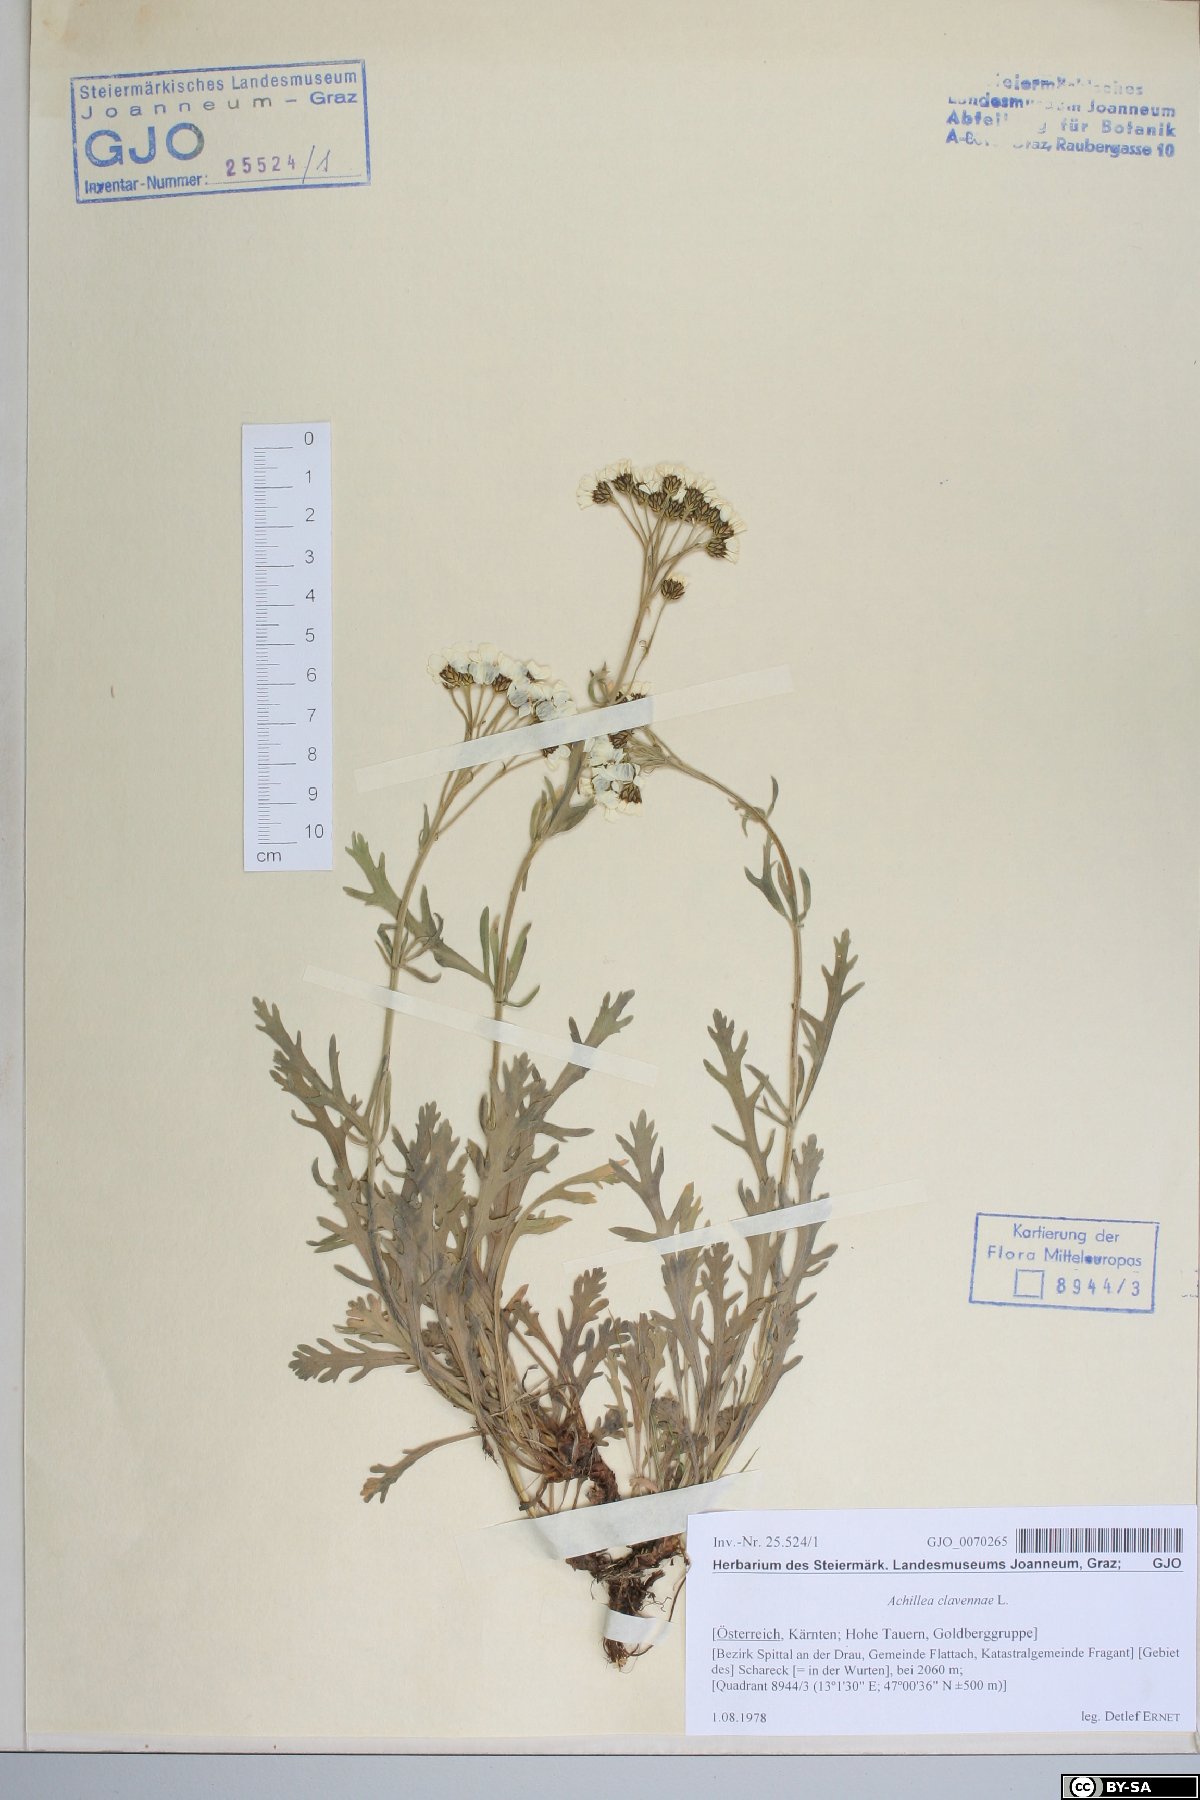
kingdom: Plantae
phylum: Tracheophyta
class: Magnoliopsida
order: Asterales
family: Asteraceae
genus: Achillea
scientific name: Achillea clavennae
